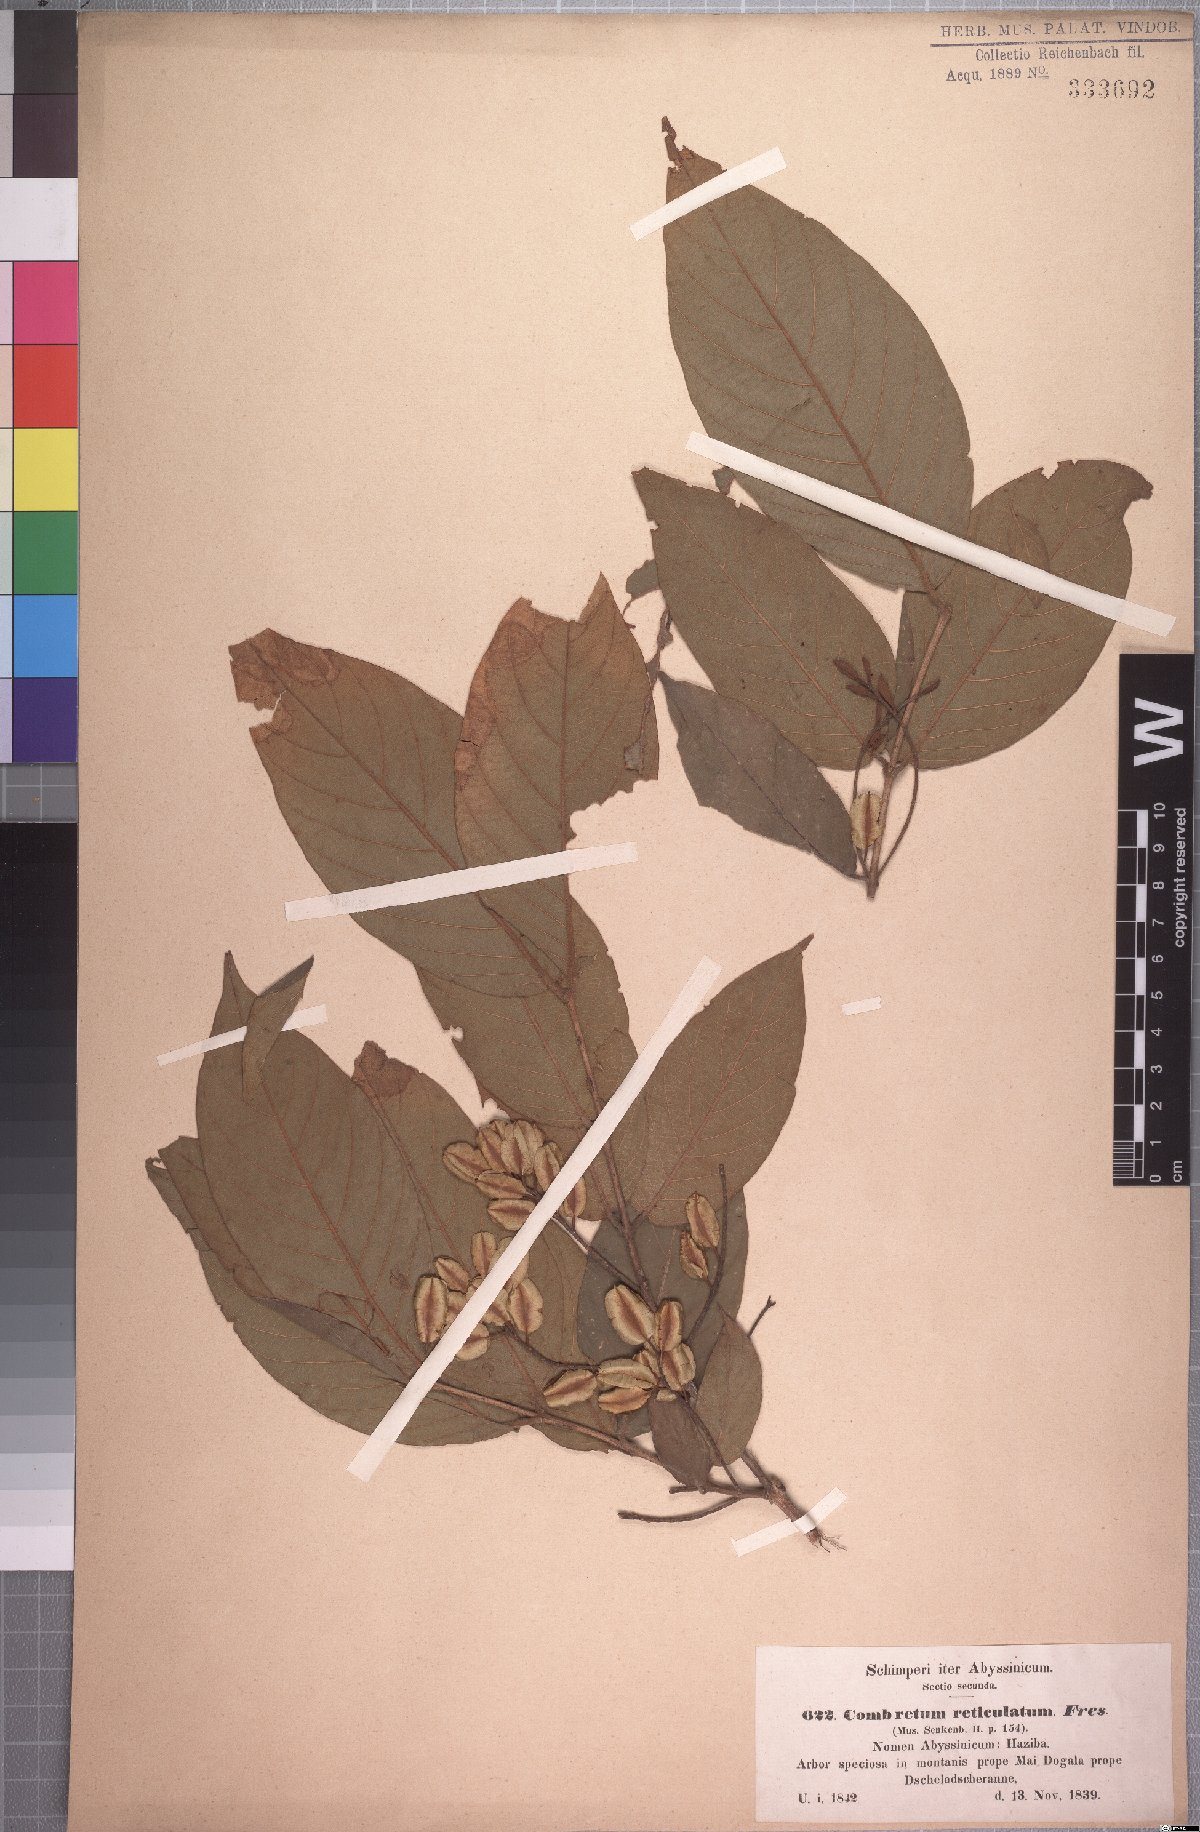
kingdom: Plantae
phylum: Tracheophyta
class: Magnoliopsida
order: Myrtales
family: Combretaceae
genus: Combretum
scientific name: Combretum molle
